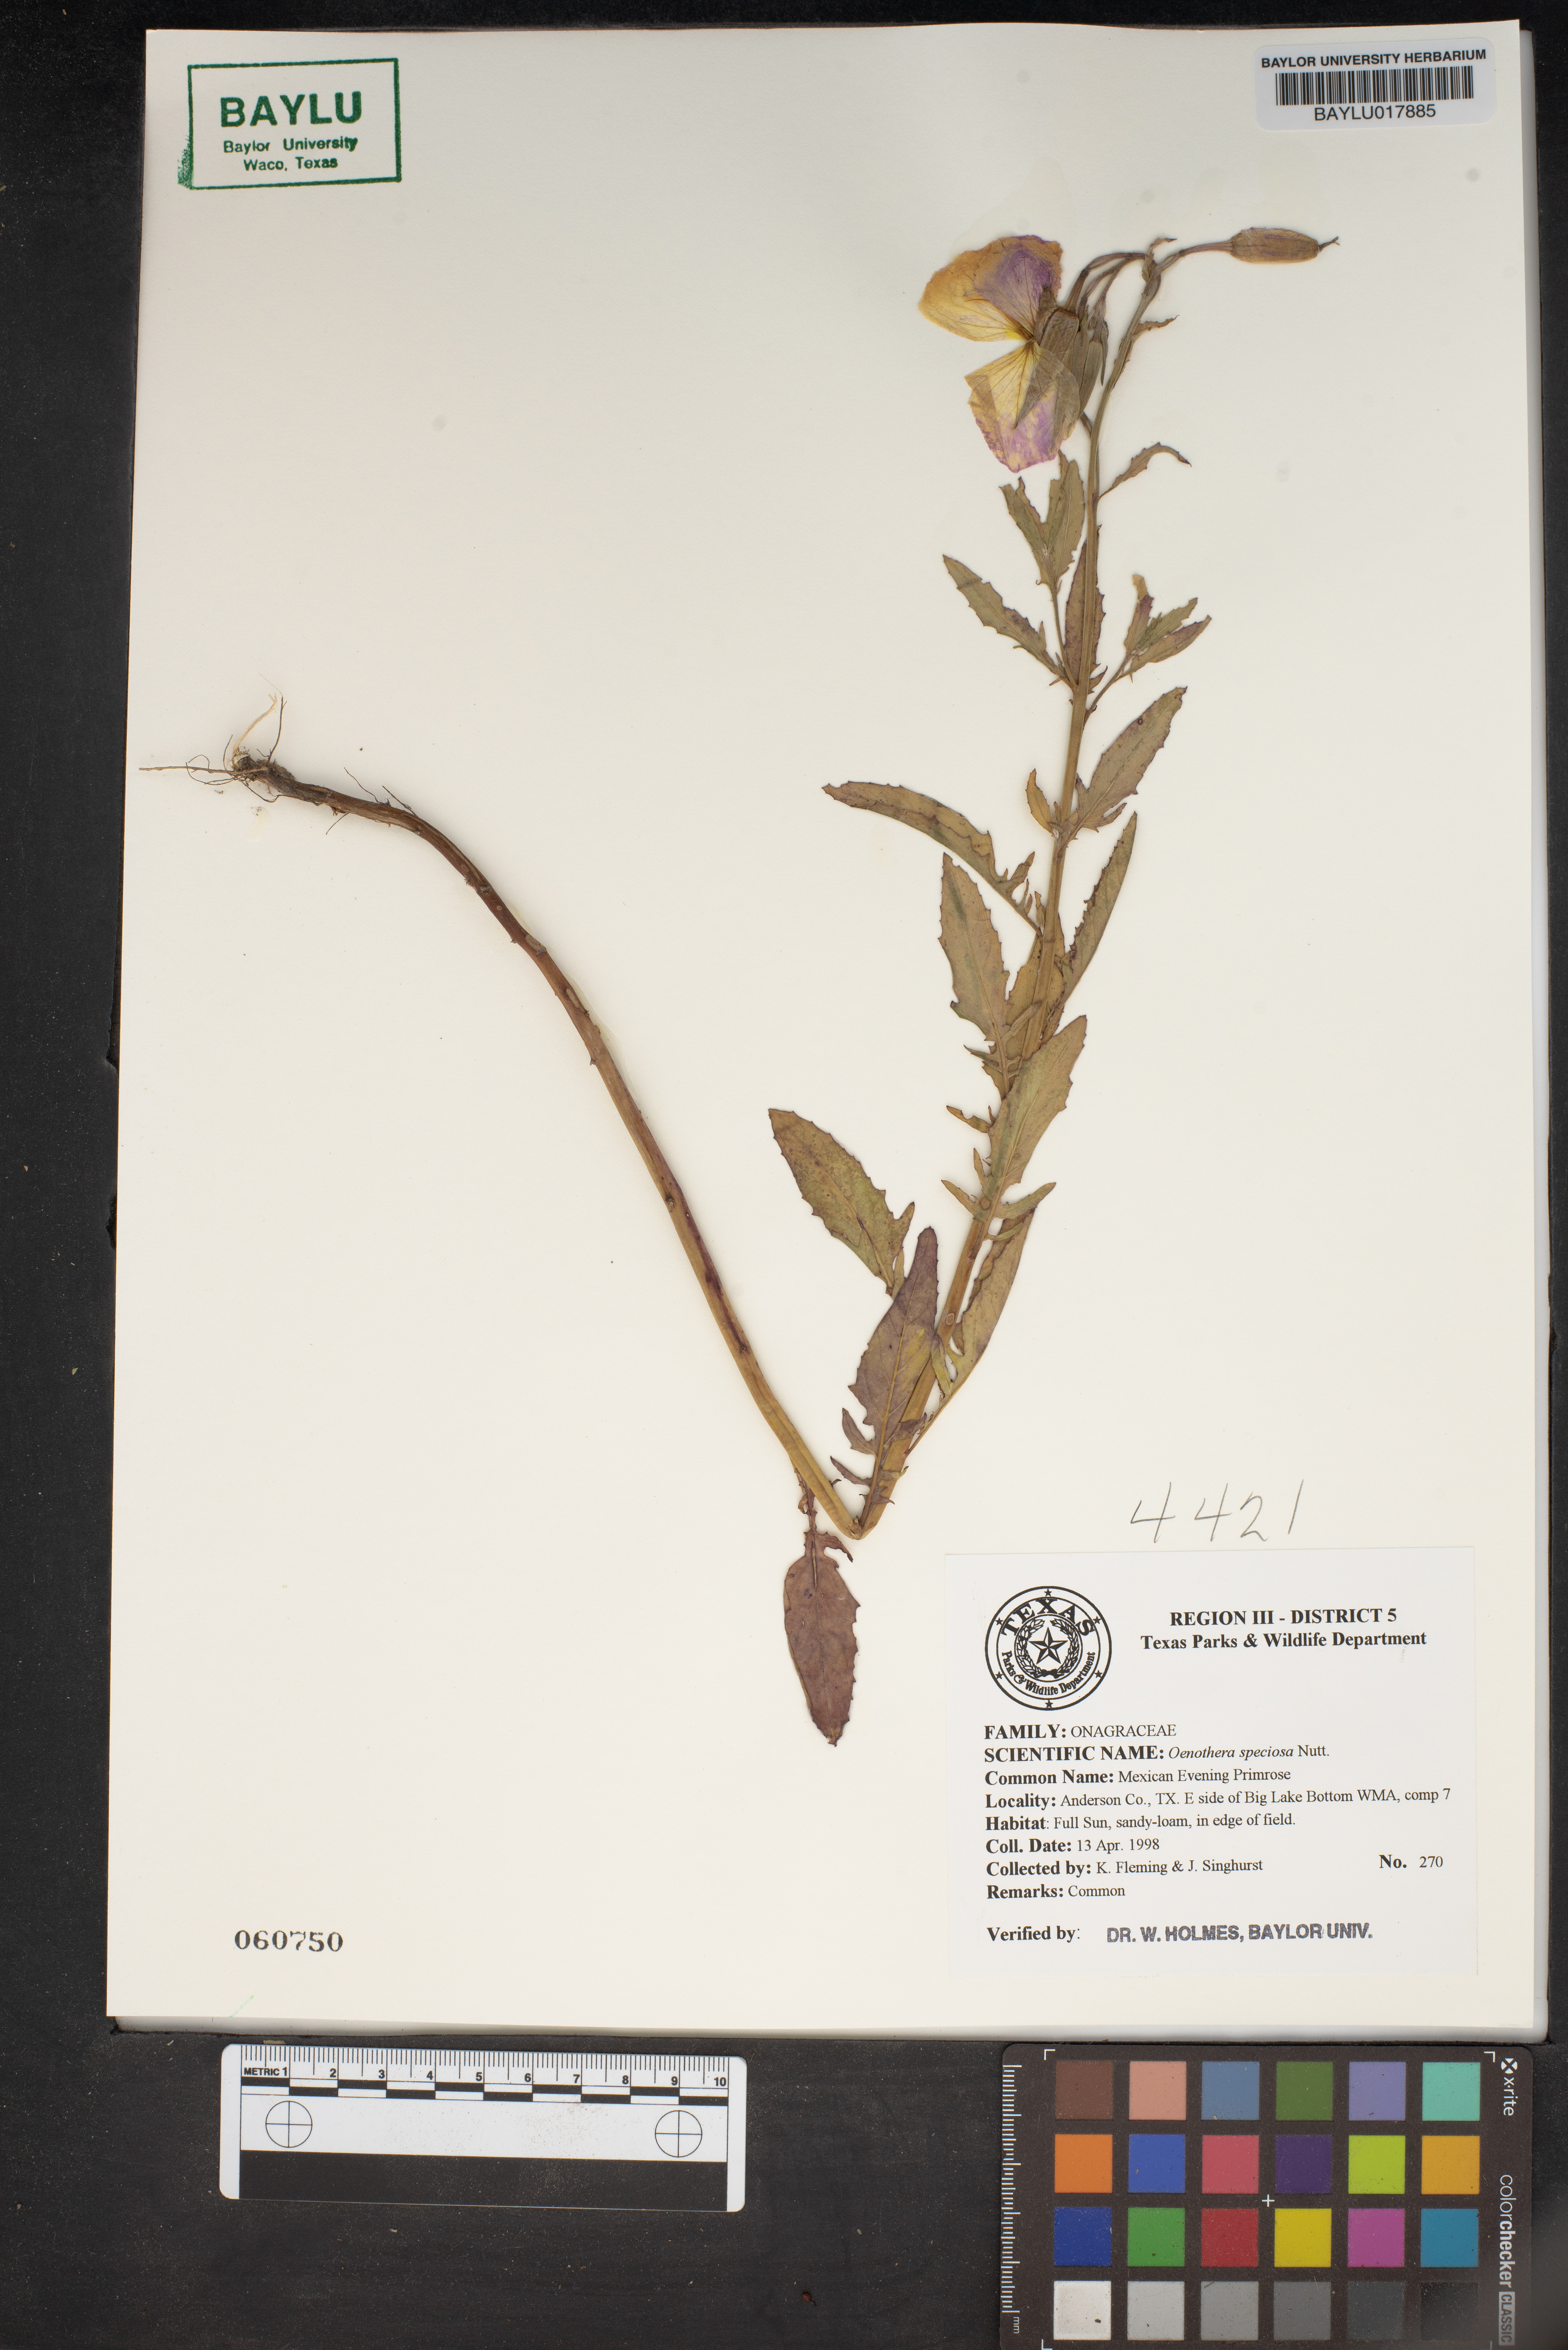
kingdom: Plantae
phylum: Tracheophyta
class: Magnoliopsida
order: Myrtales
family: Onagraceae
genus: Oenothera
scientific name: Oenothera speciosa
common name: White evening-primrose
